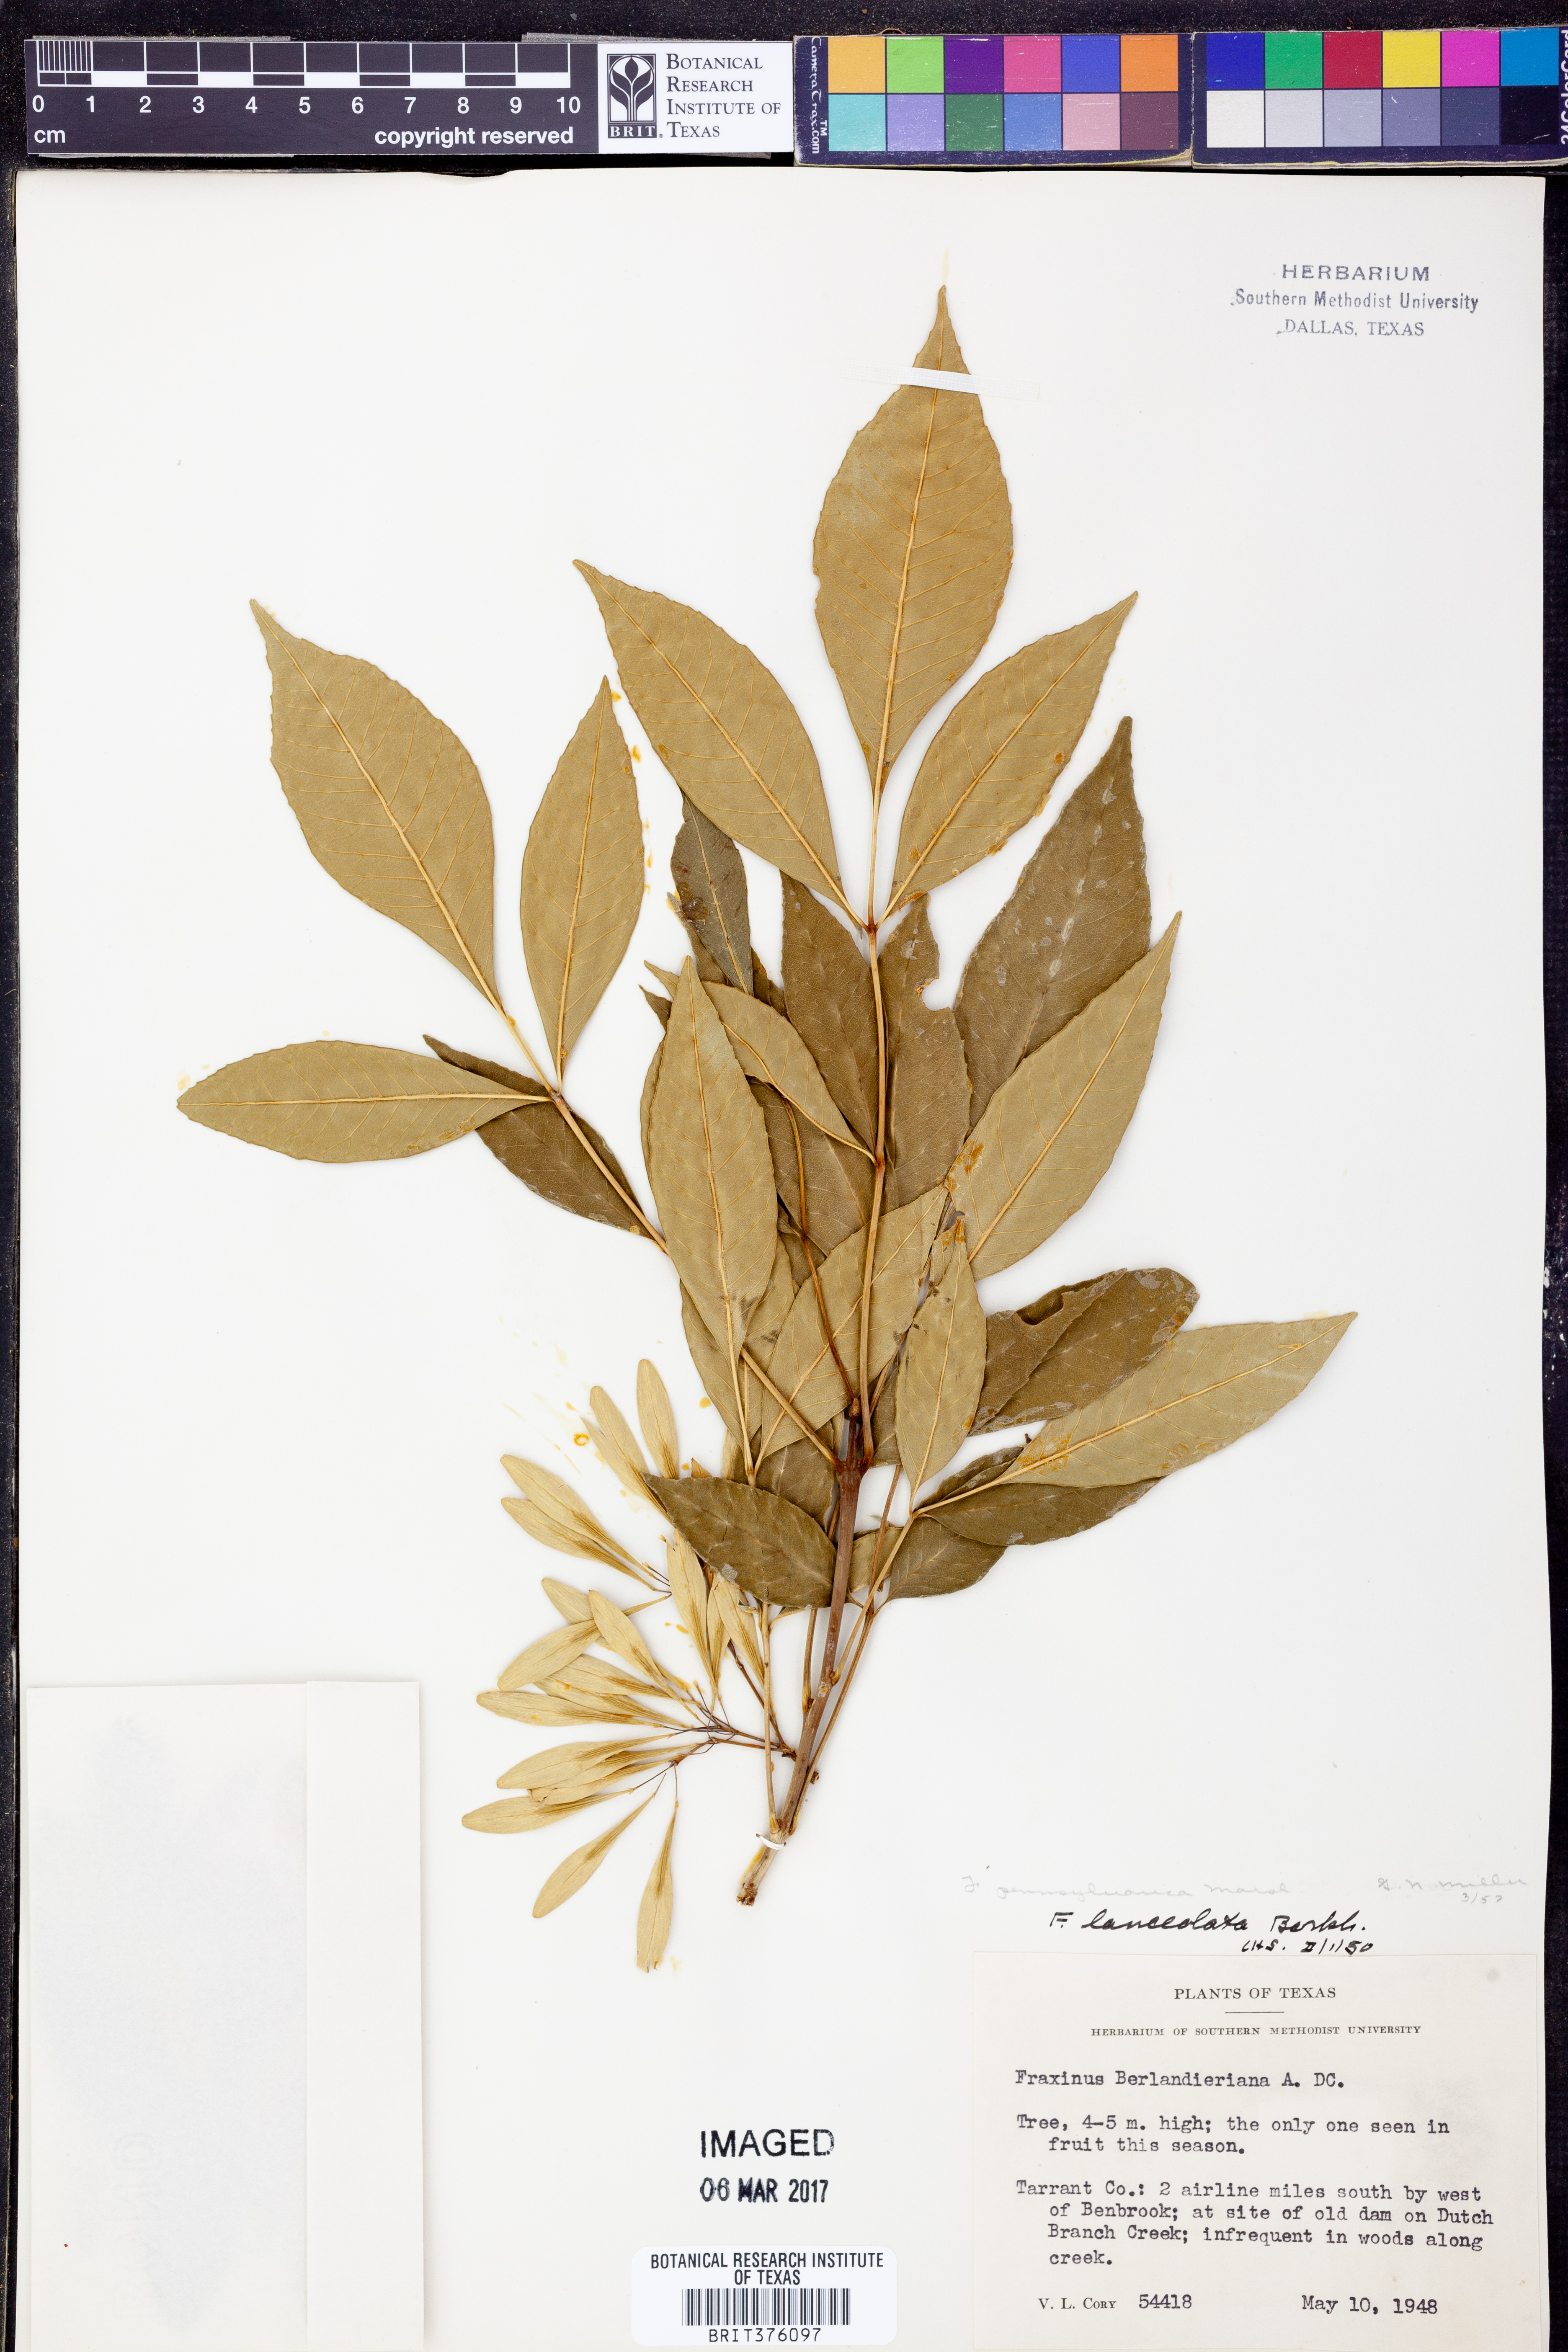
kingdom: Plantae
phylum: Tracheophyta
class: Magnoliopsida
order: Lamiales
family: Oleaceae
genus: Fraxinus
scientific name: Fraxinus pennsylvanica
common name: Green ash
